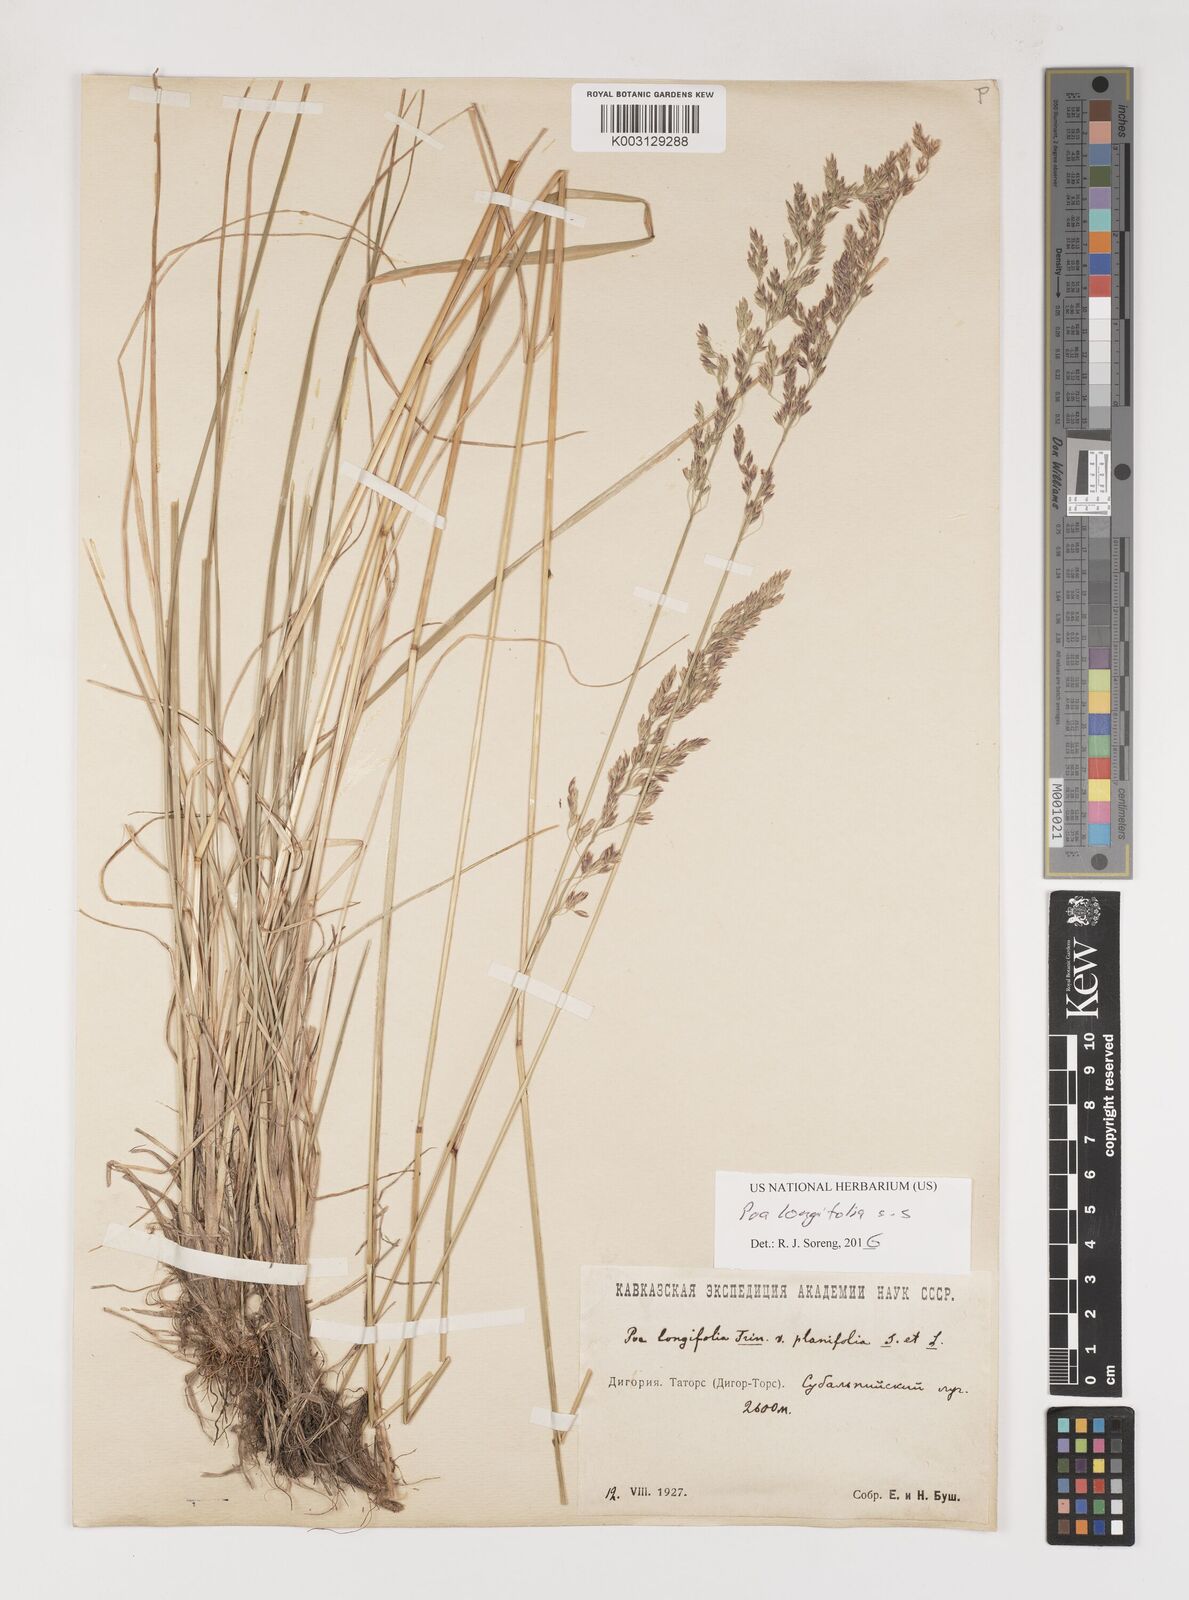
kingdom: Plantae
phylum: Tracheophyta
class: Liliopsida
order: Poales
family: Poaceae
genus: Poa
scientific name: Poa longifolia
